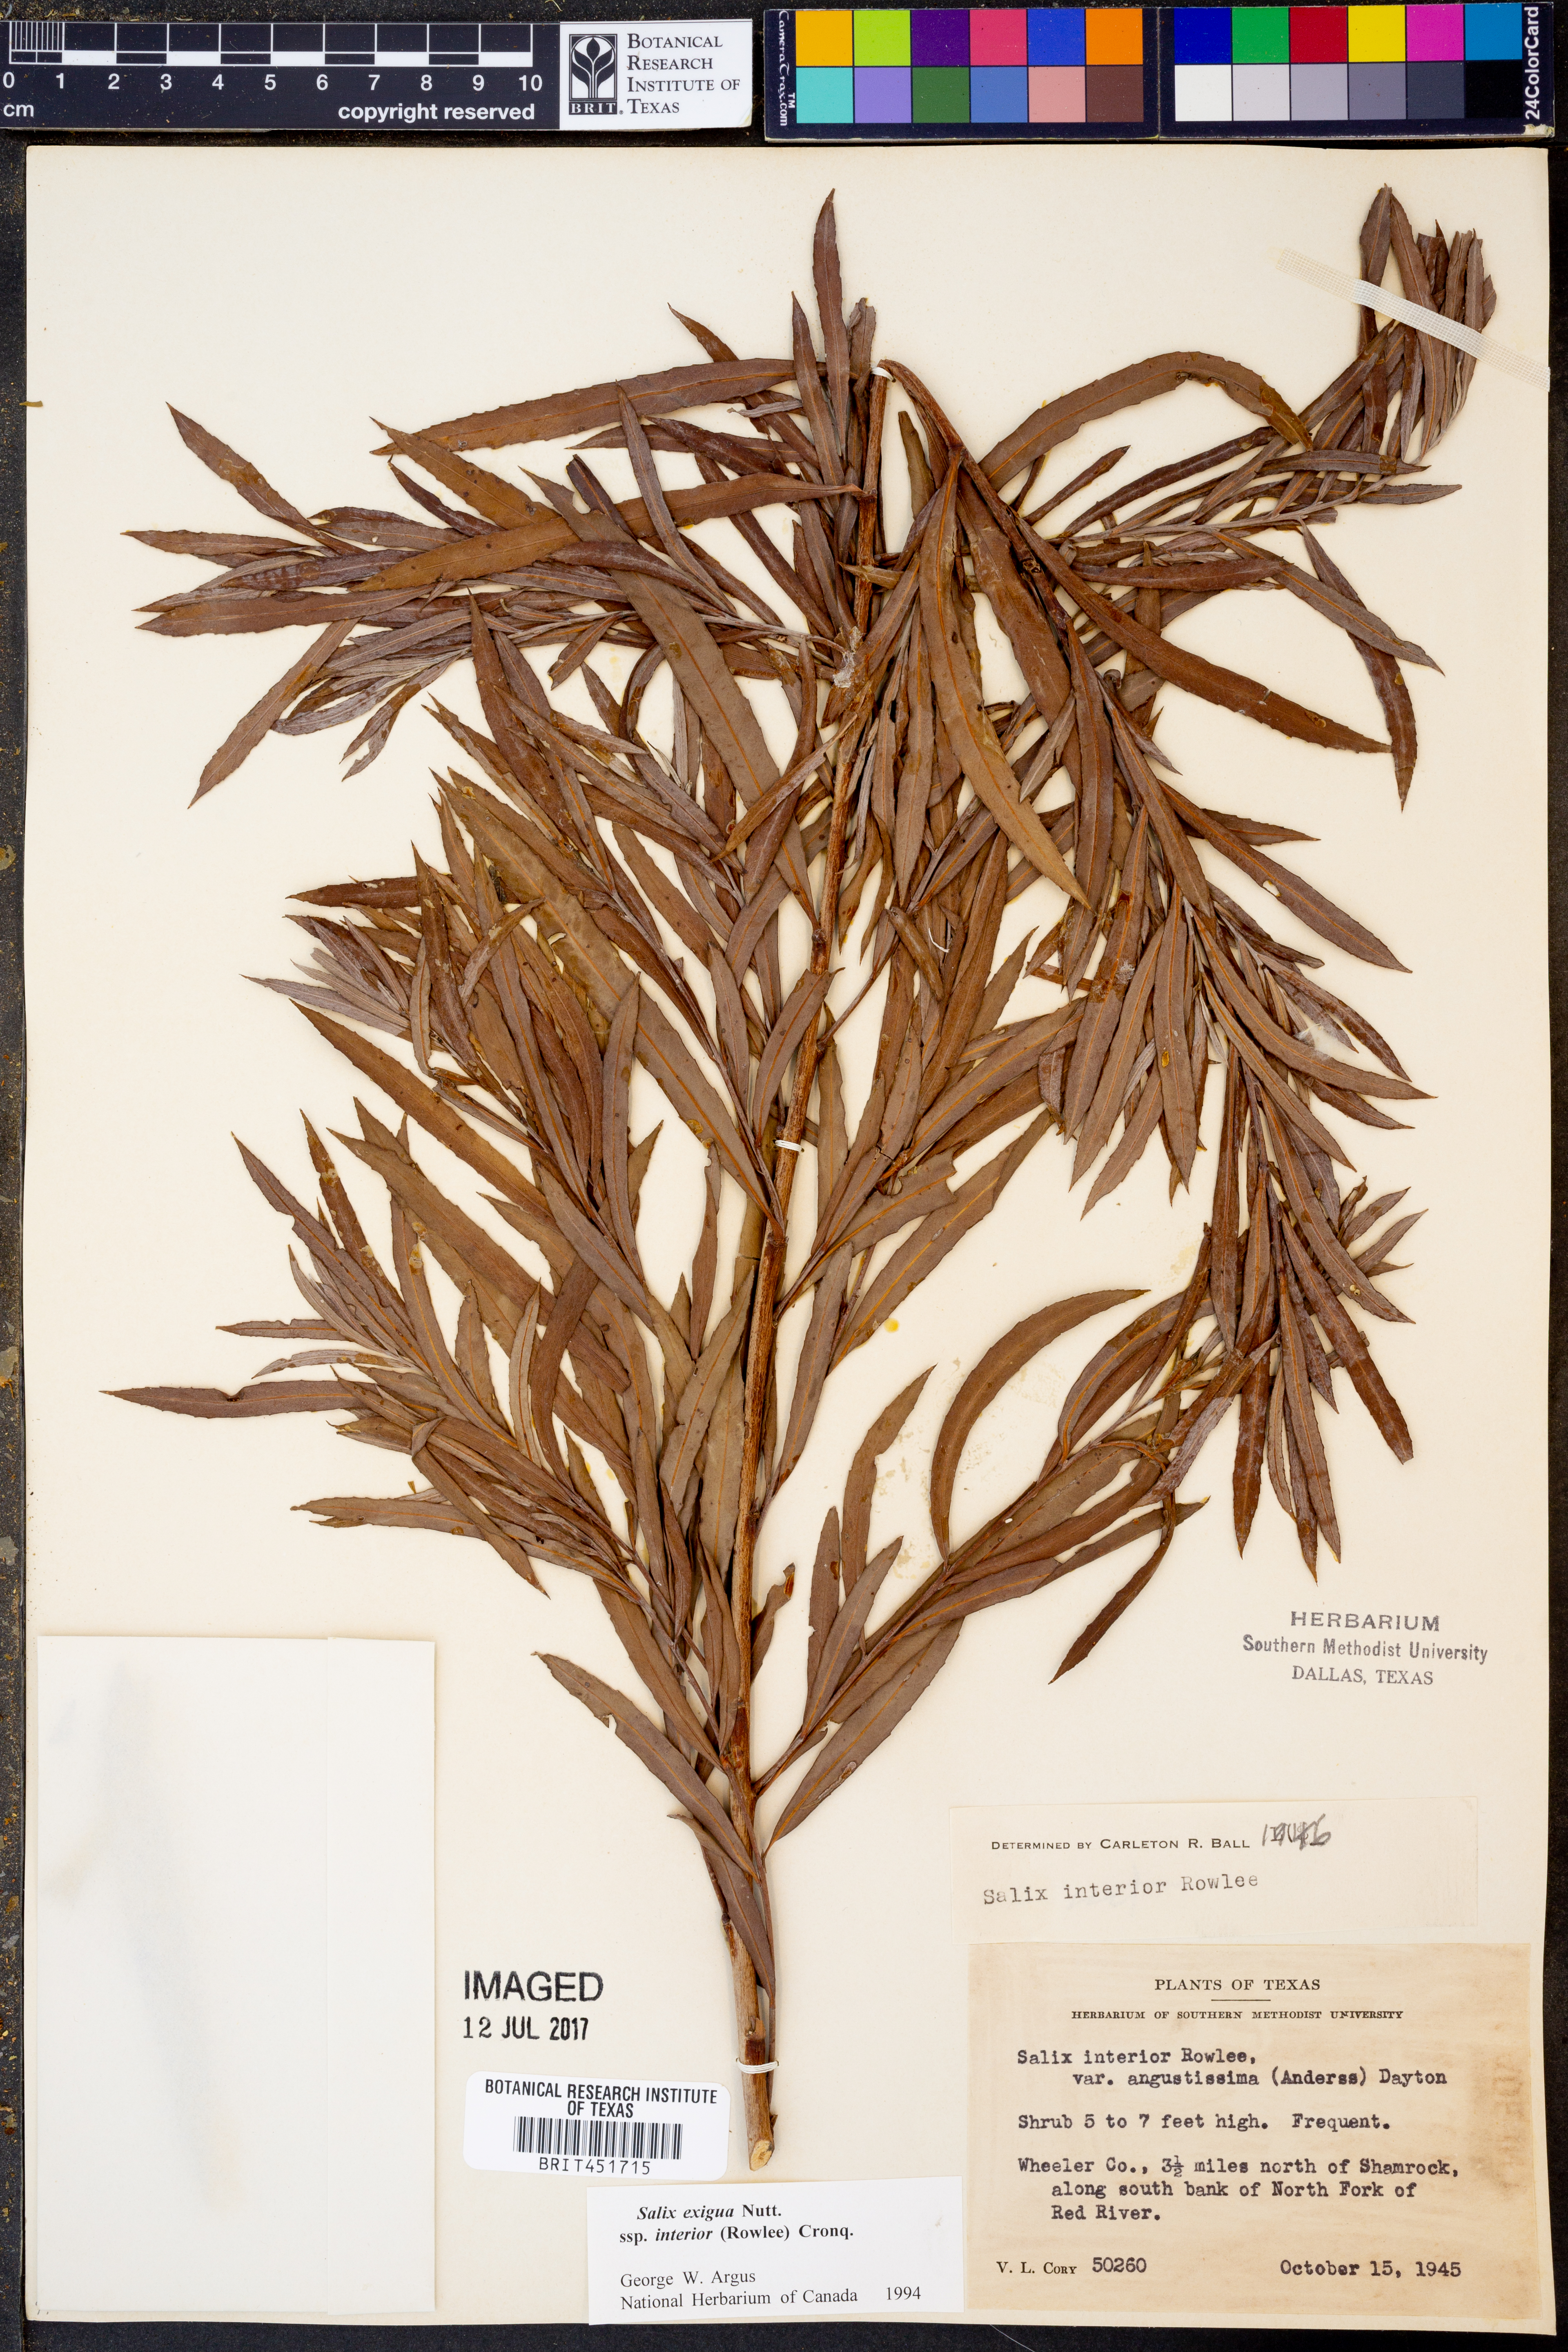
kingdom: Plantae
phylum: Tracheophyta
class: Magnoliopsida
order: Malpighiales
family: Salicaceae
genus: Salix
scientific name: Salix interior
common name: Sandbar willow
